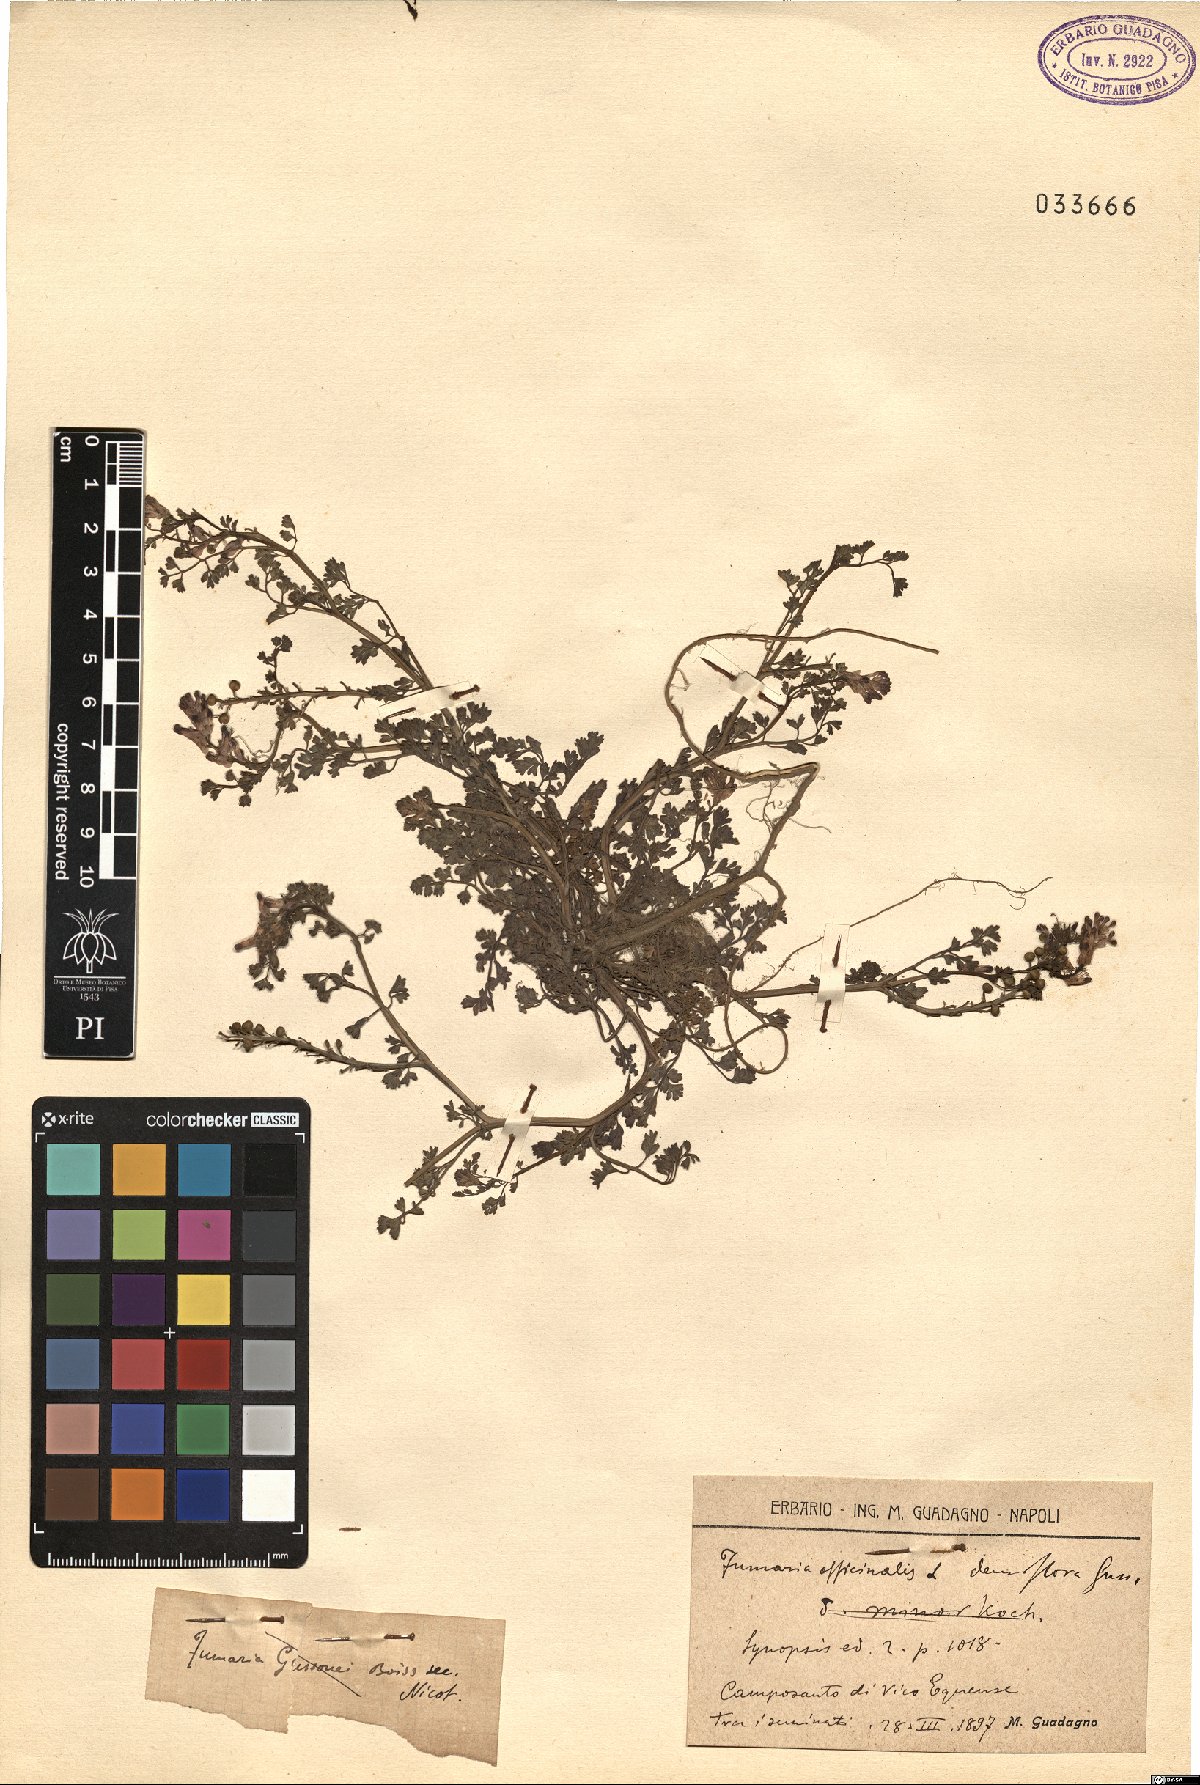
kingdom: Plantae
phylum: Tracheophyta
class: Magnoliopsida
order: Ranunculales
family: Papaveraceae
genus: Fumaria
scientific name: Fumaria densiflora
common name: Dense-flowered fumitory
